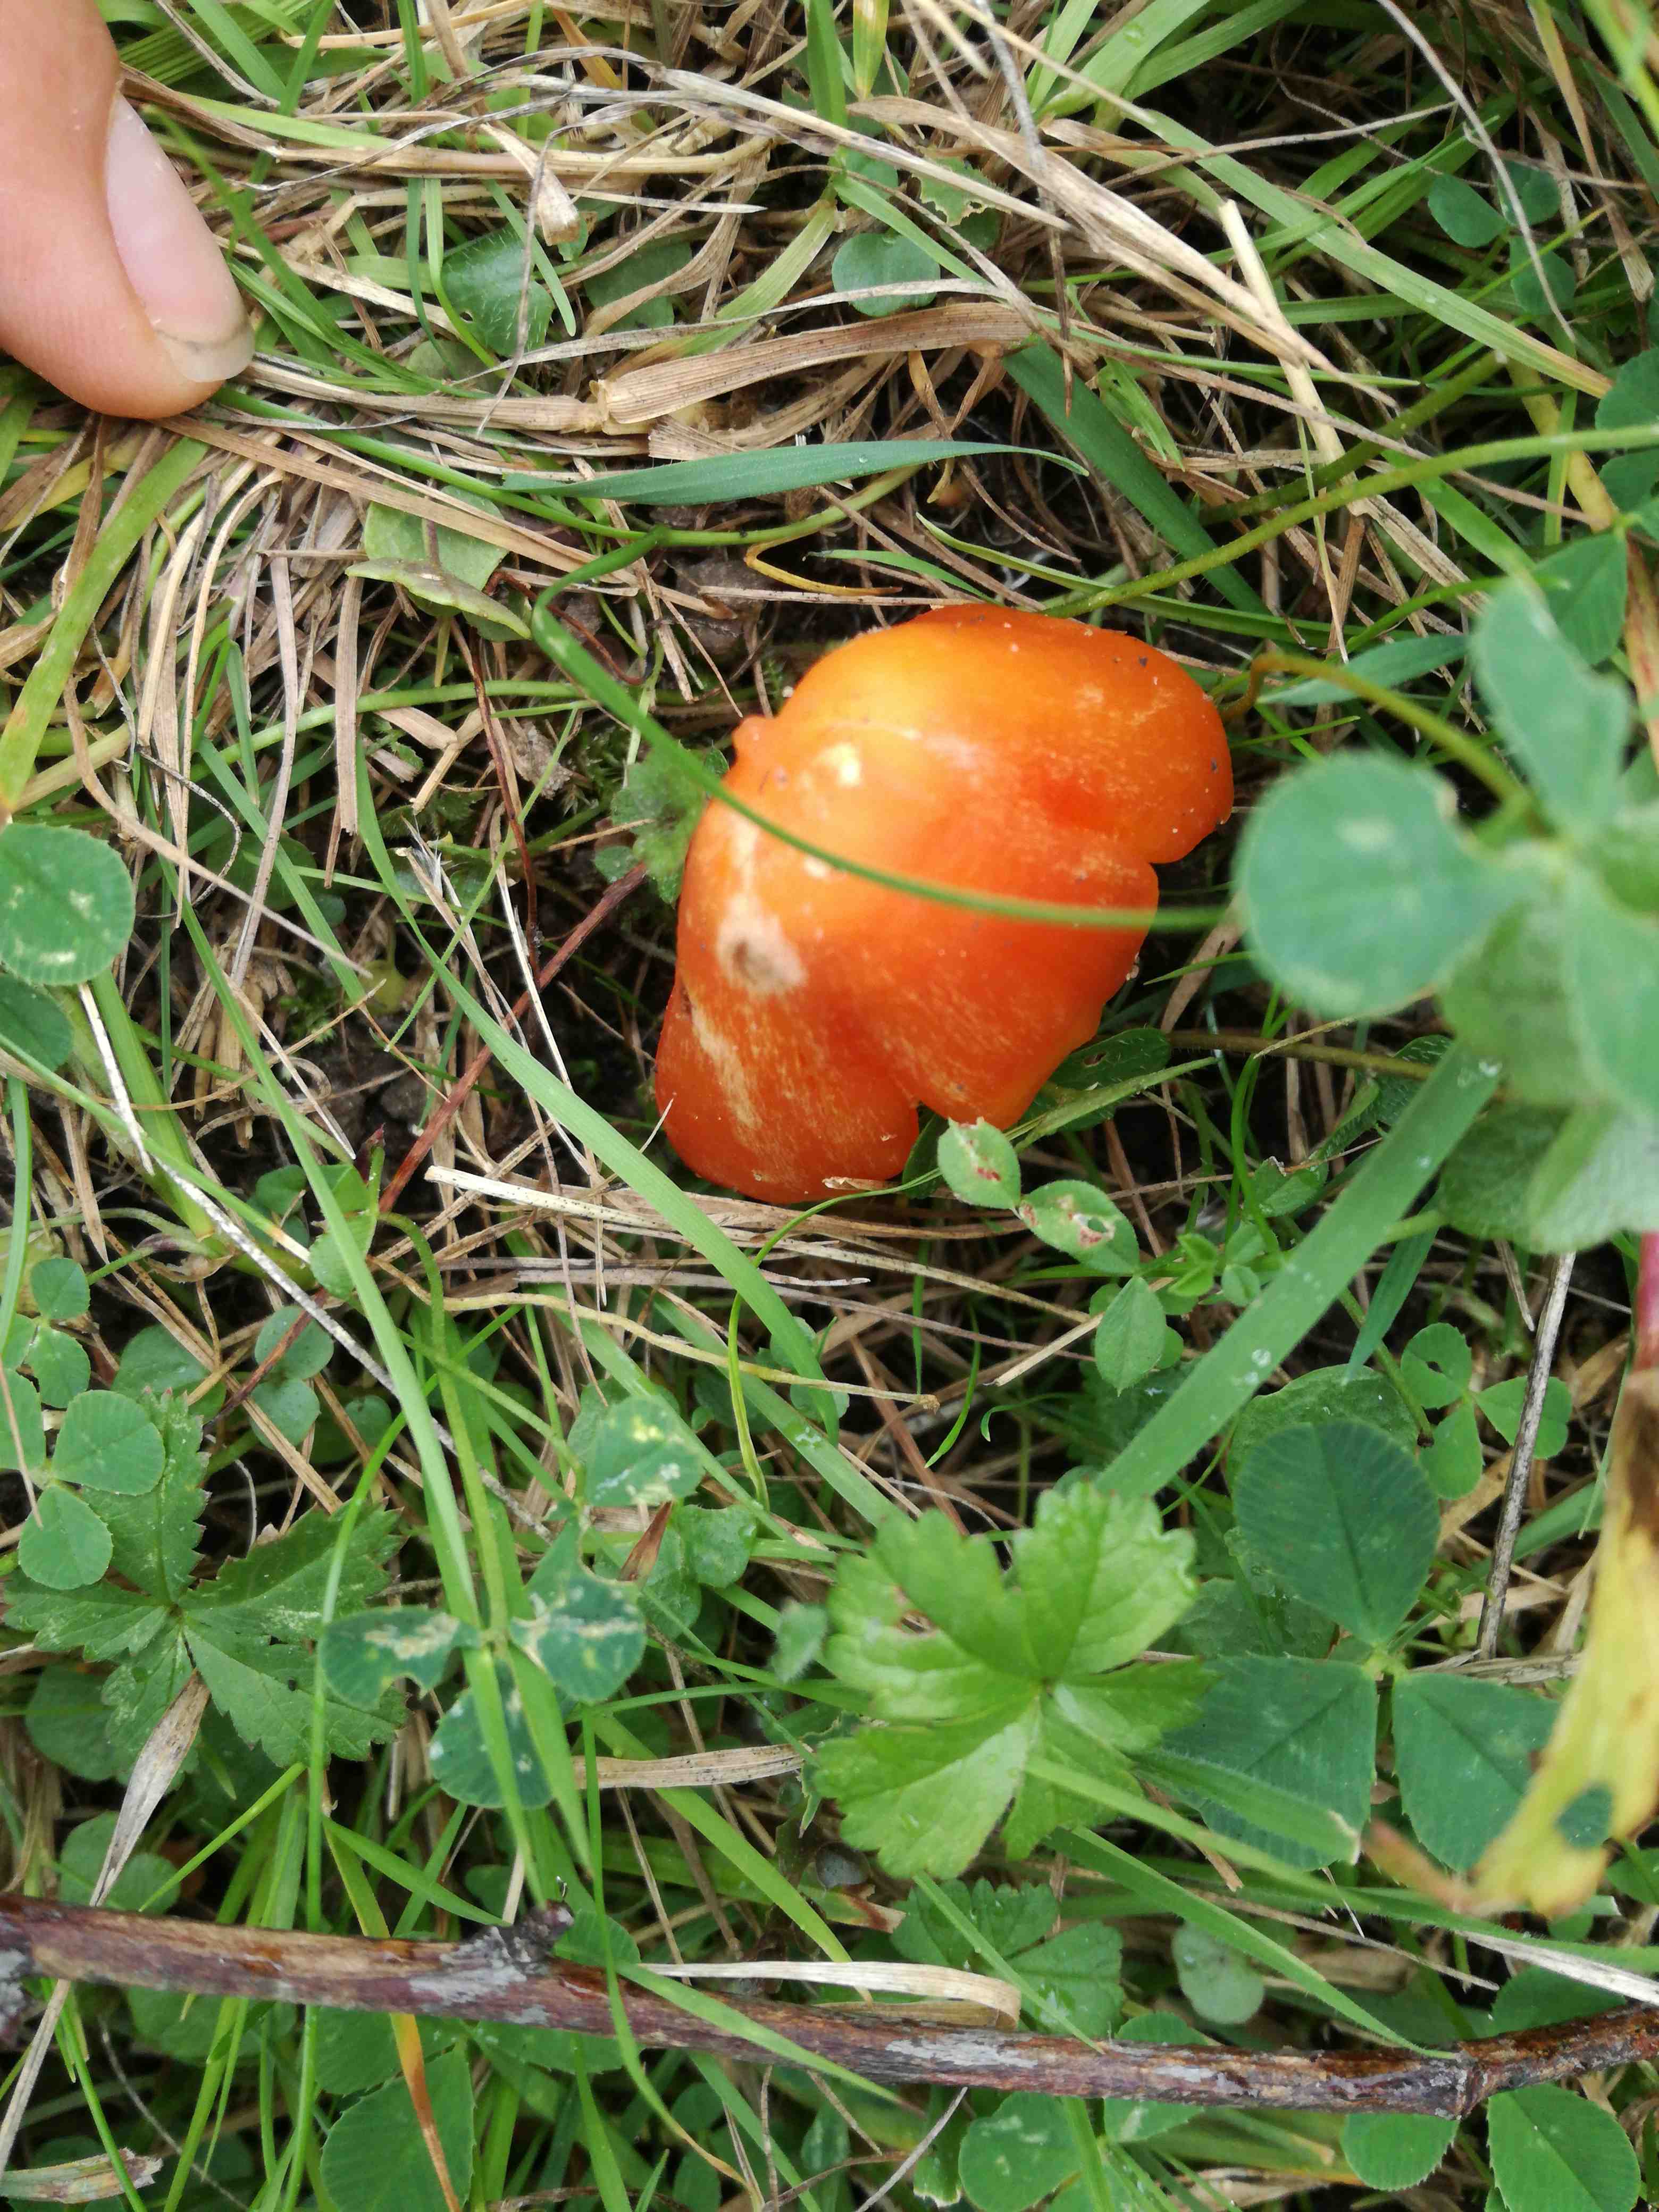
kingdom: Fungi
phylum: Basidiomycota
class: Agaricomycetes
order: Agaricales
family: Hygrophoraceae
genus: Hygrocybe
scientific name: Hygrocybe
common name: vokshat
